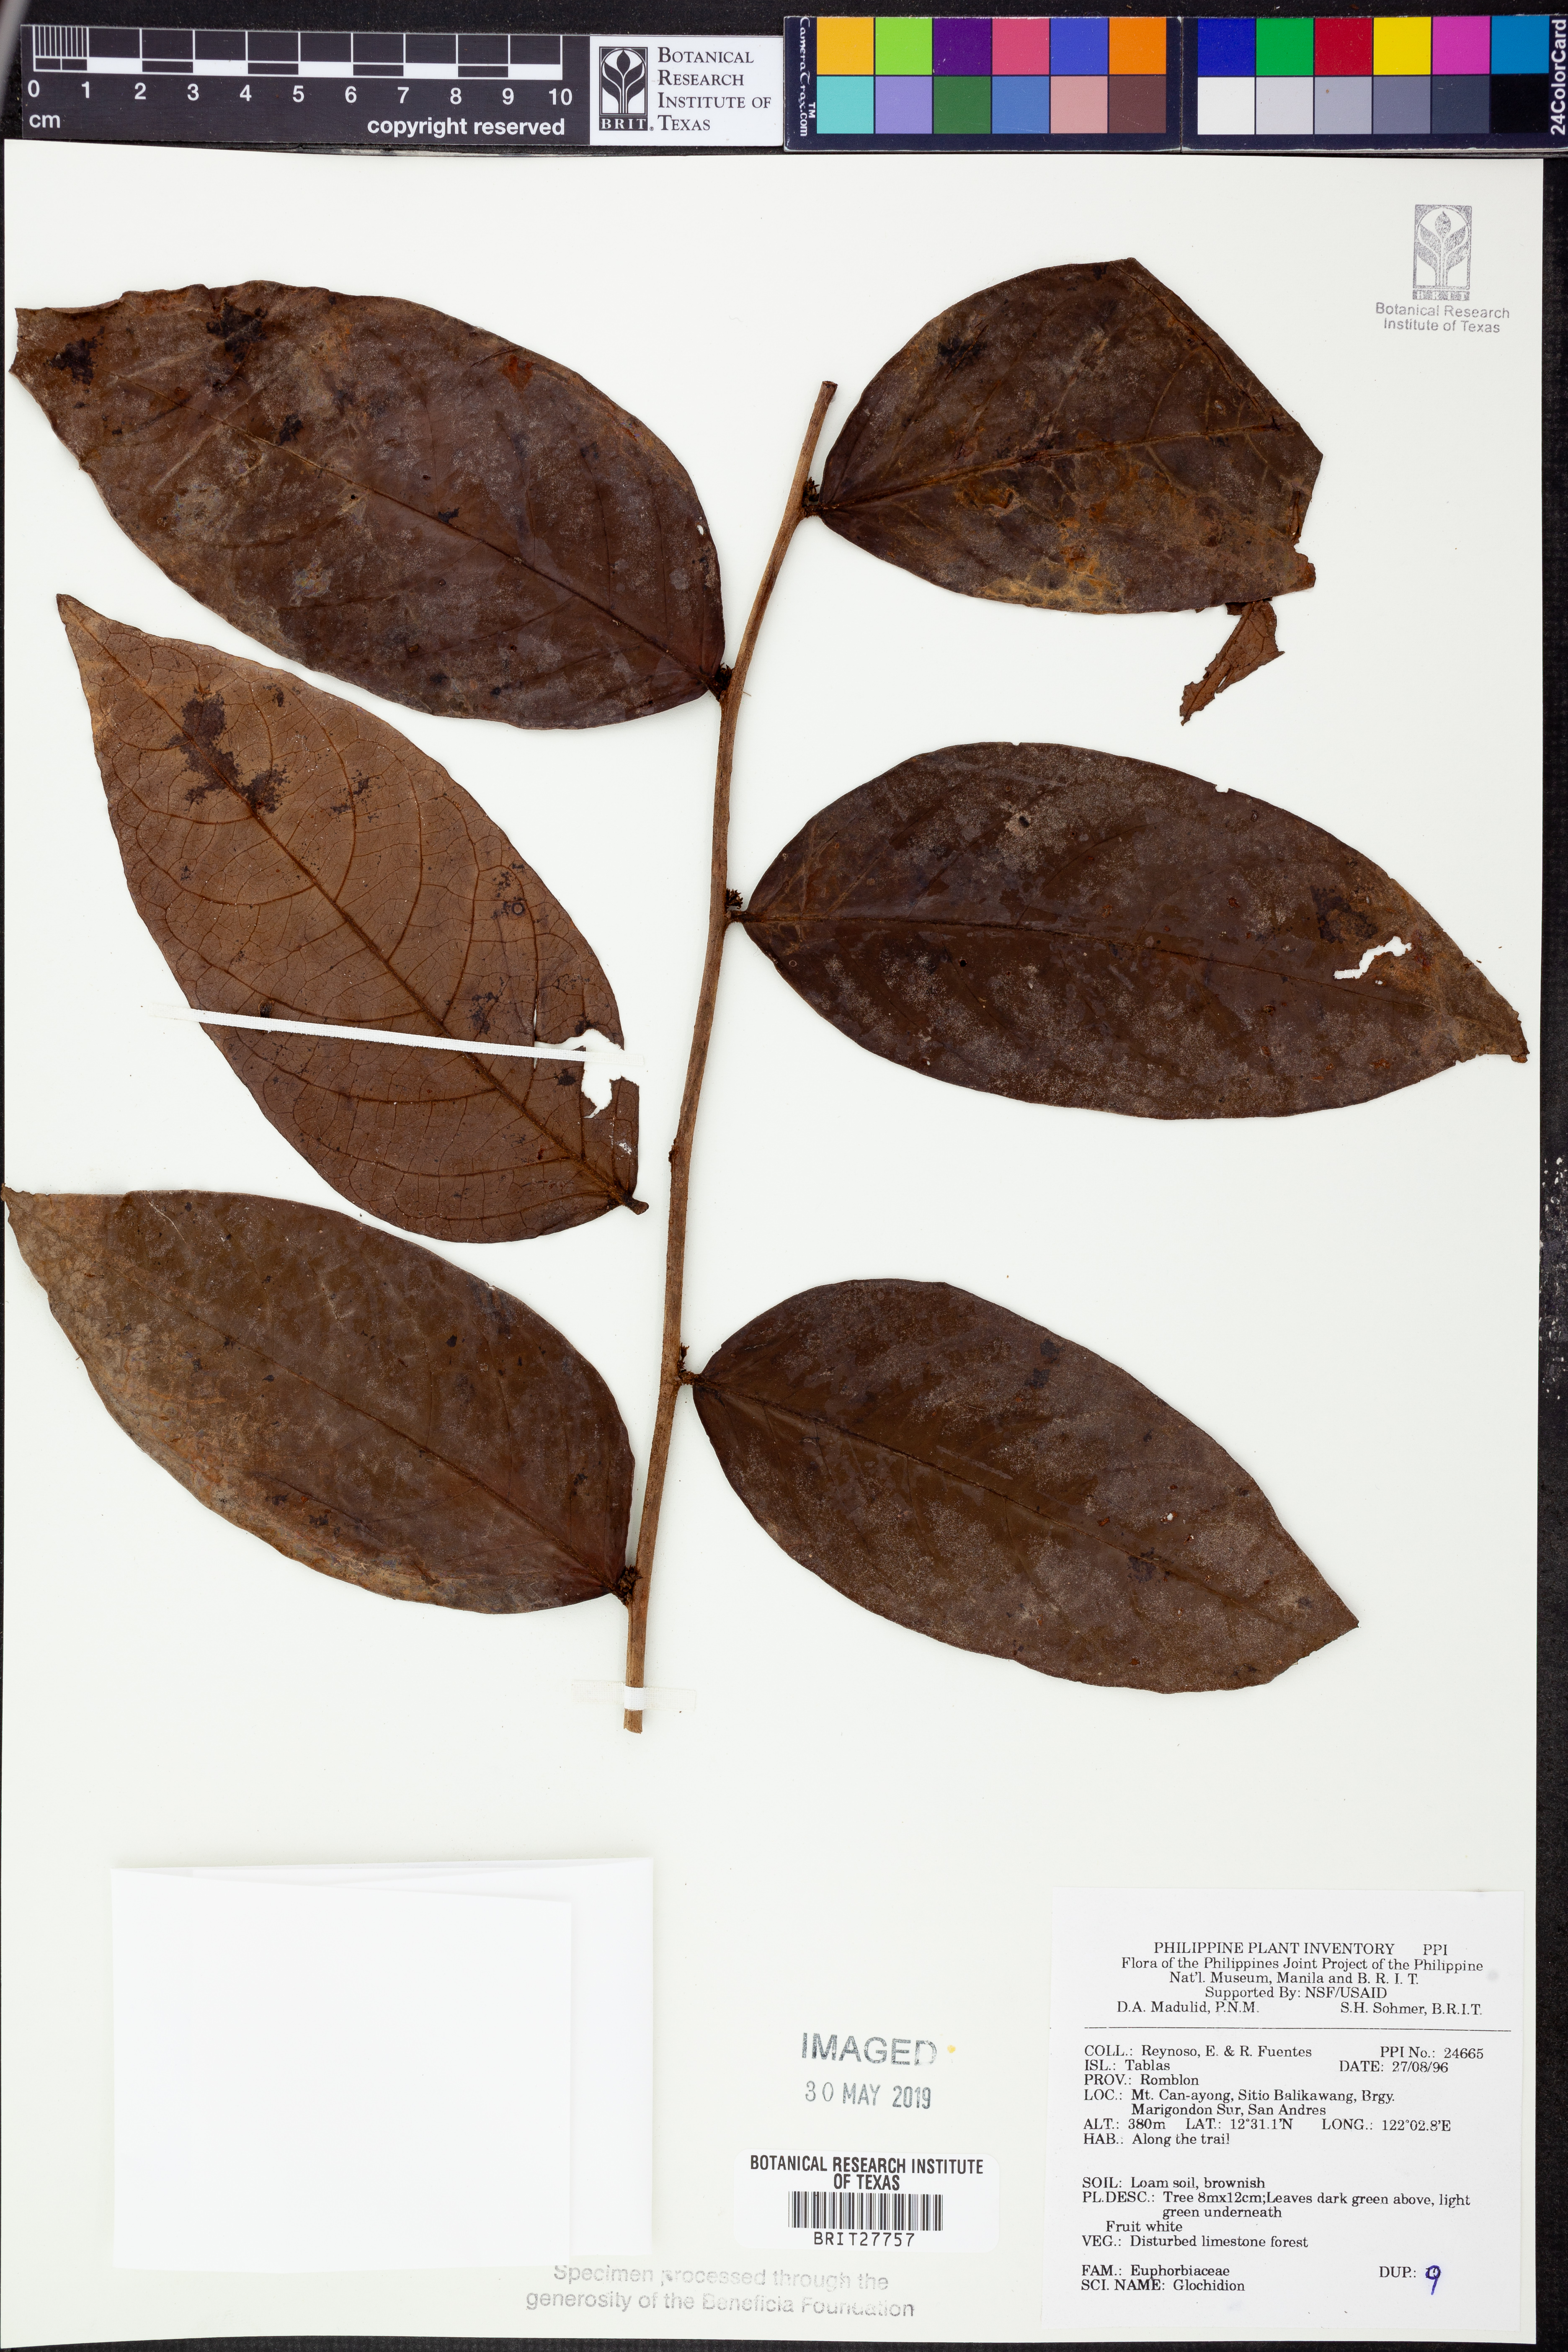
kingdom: Plantae
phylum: Tracheophyta
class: Magnoliopsida
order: Malpighiales
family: Phyllanthaceae
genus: Glochidion
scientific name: Glochidion
